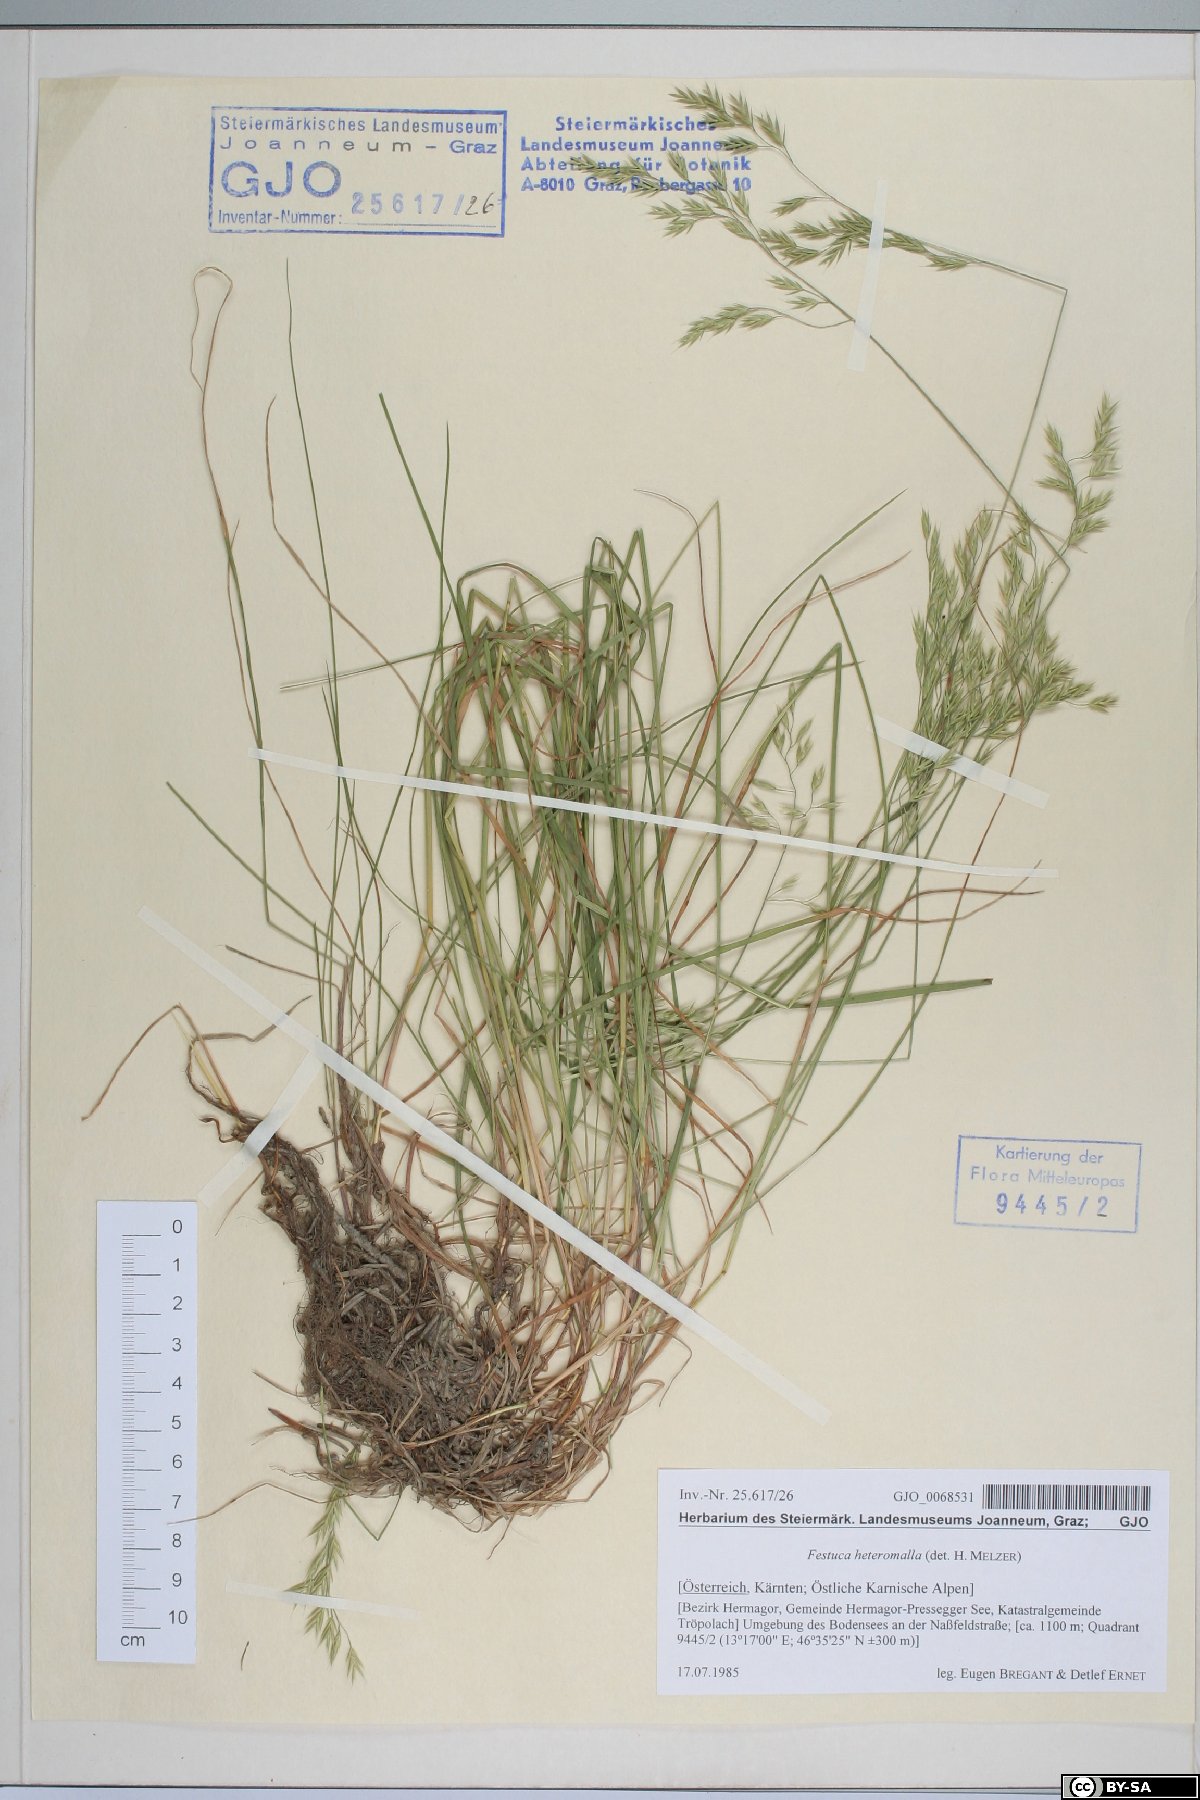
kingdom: Plantae
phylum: Tracheophyta
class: Liliopsida
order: Poales
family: Poaceae
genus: Festuca
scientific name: Festuca heteromalla
